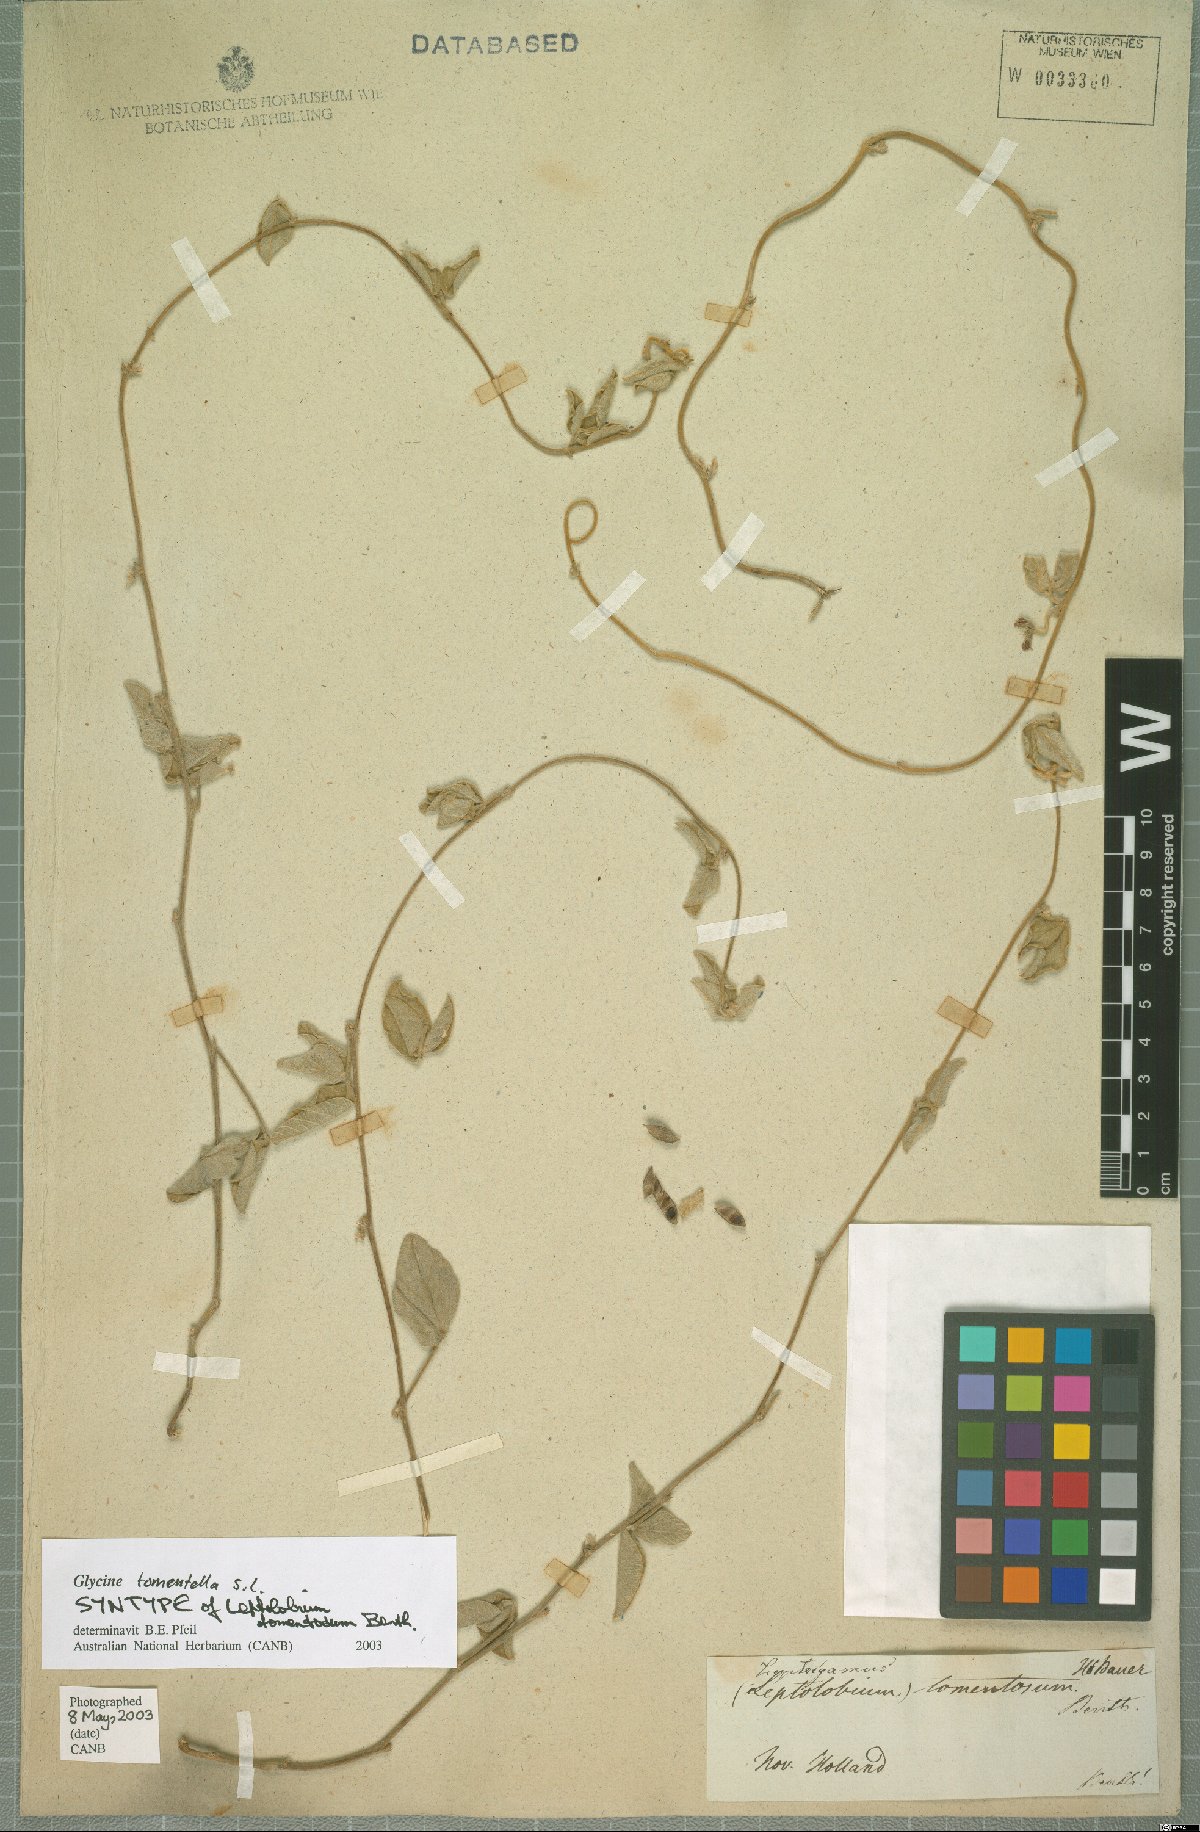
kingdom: Plantae
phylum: Tracheophyta
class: Magnoliopsida
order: Fabales
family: Fabaceae
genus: Glycine
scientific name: Glycine tomentella
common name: Hairy glycine
